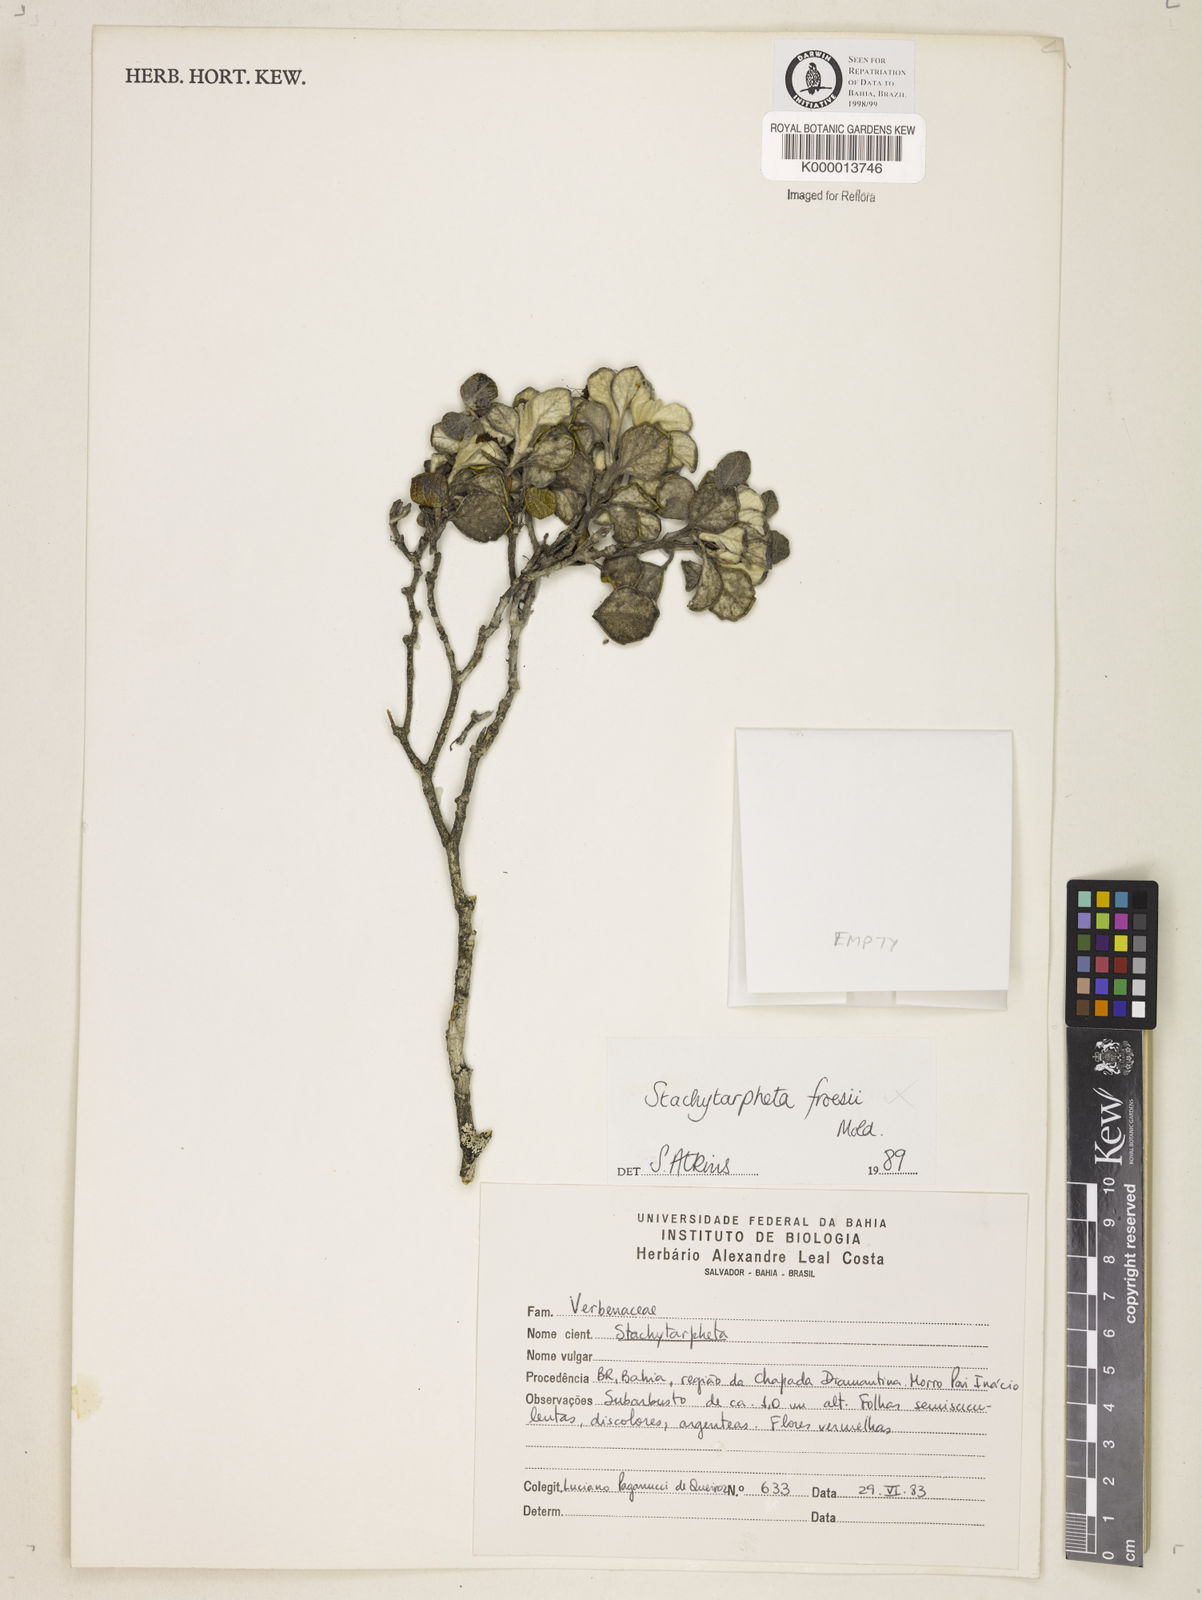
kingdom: Plantae
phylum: Tracheophyta
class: Magnoliopsida
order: Lamiales
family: Verbenaceae
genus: Stachytarpheta
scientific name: Stachytarpheta froesii
